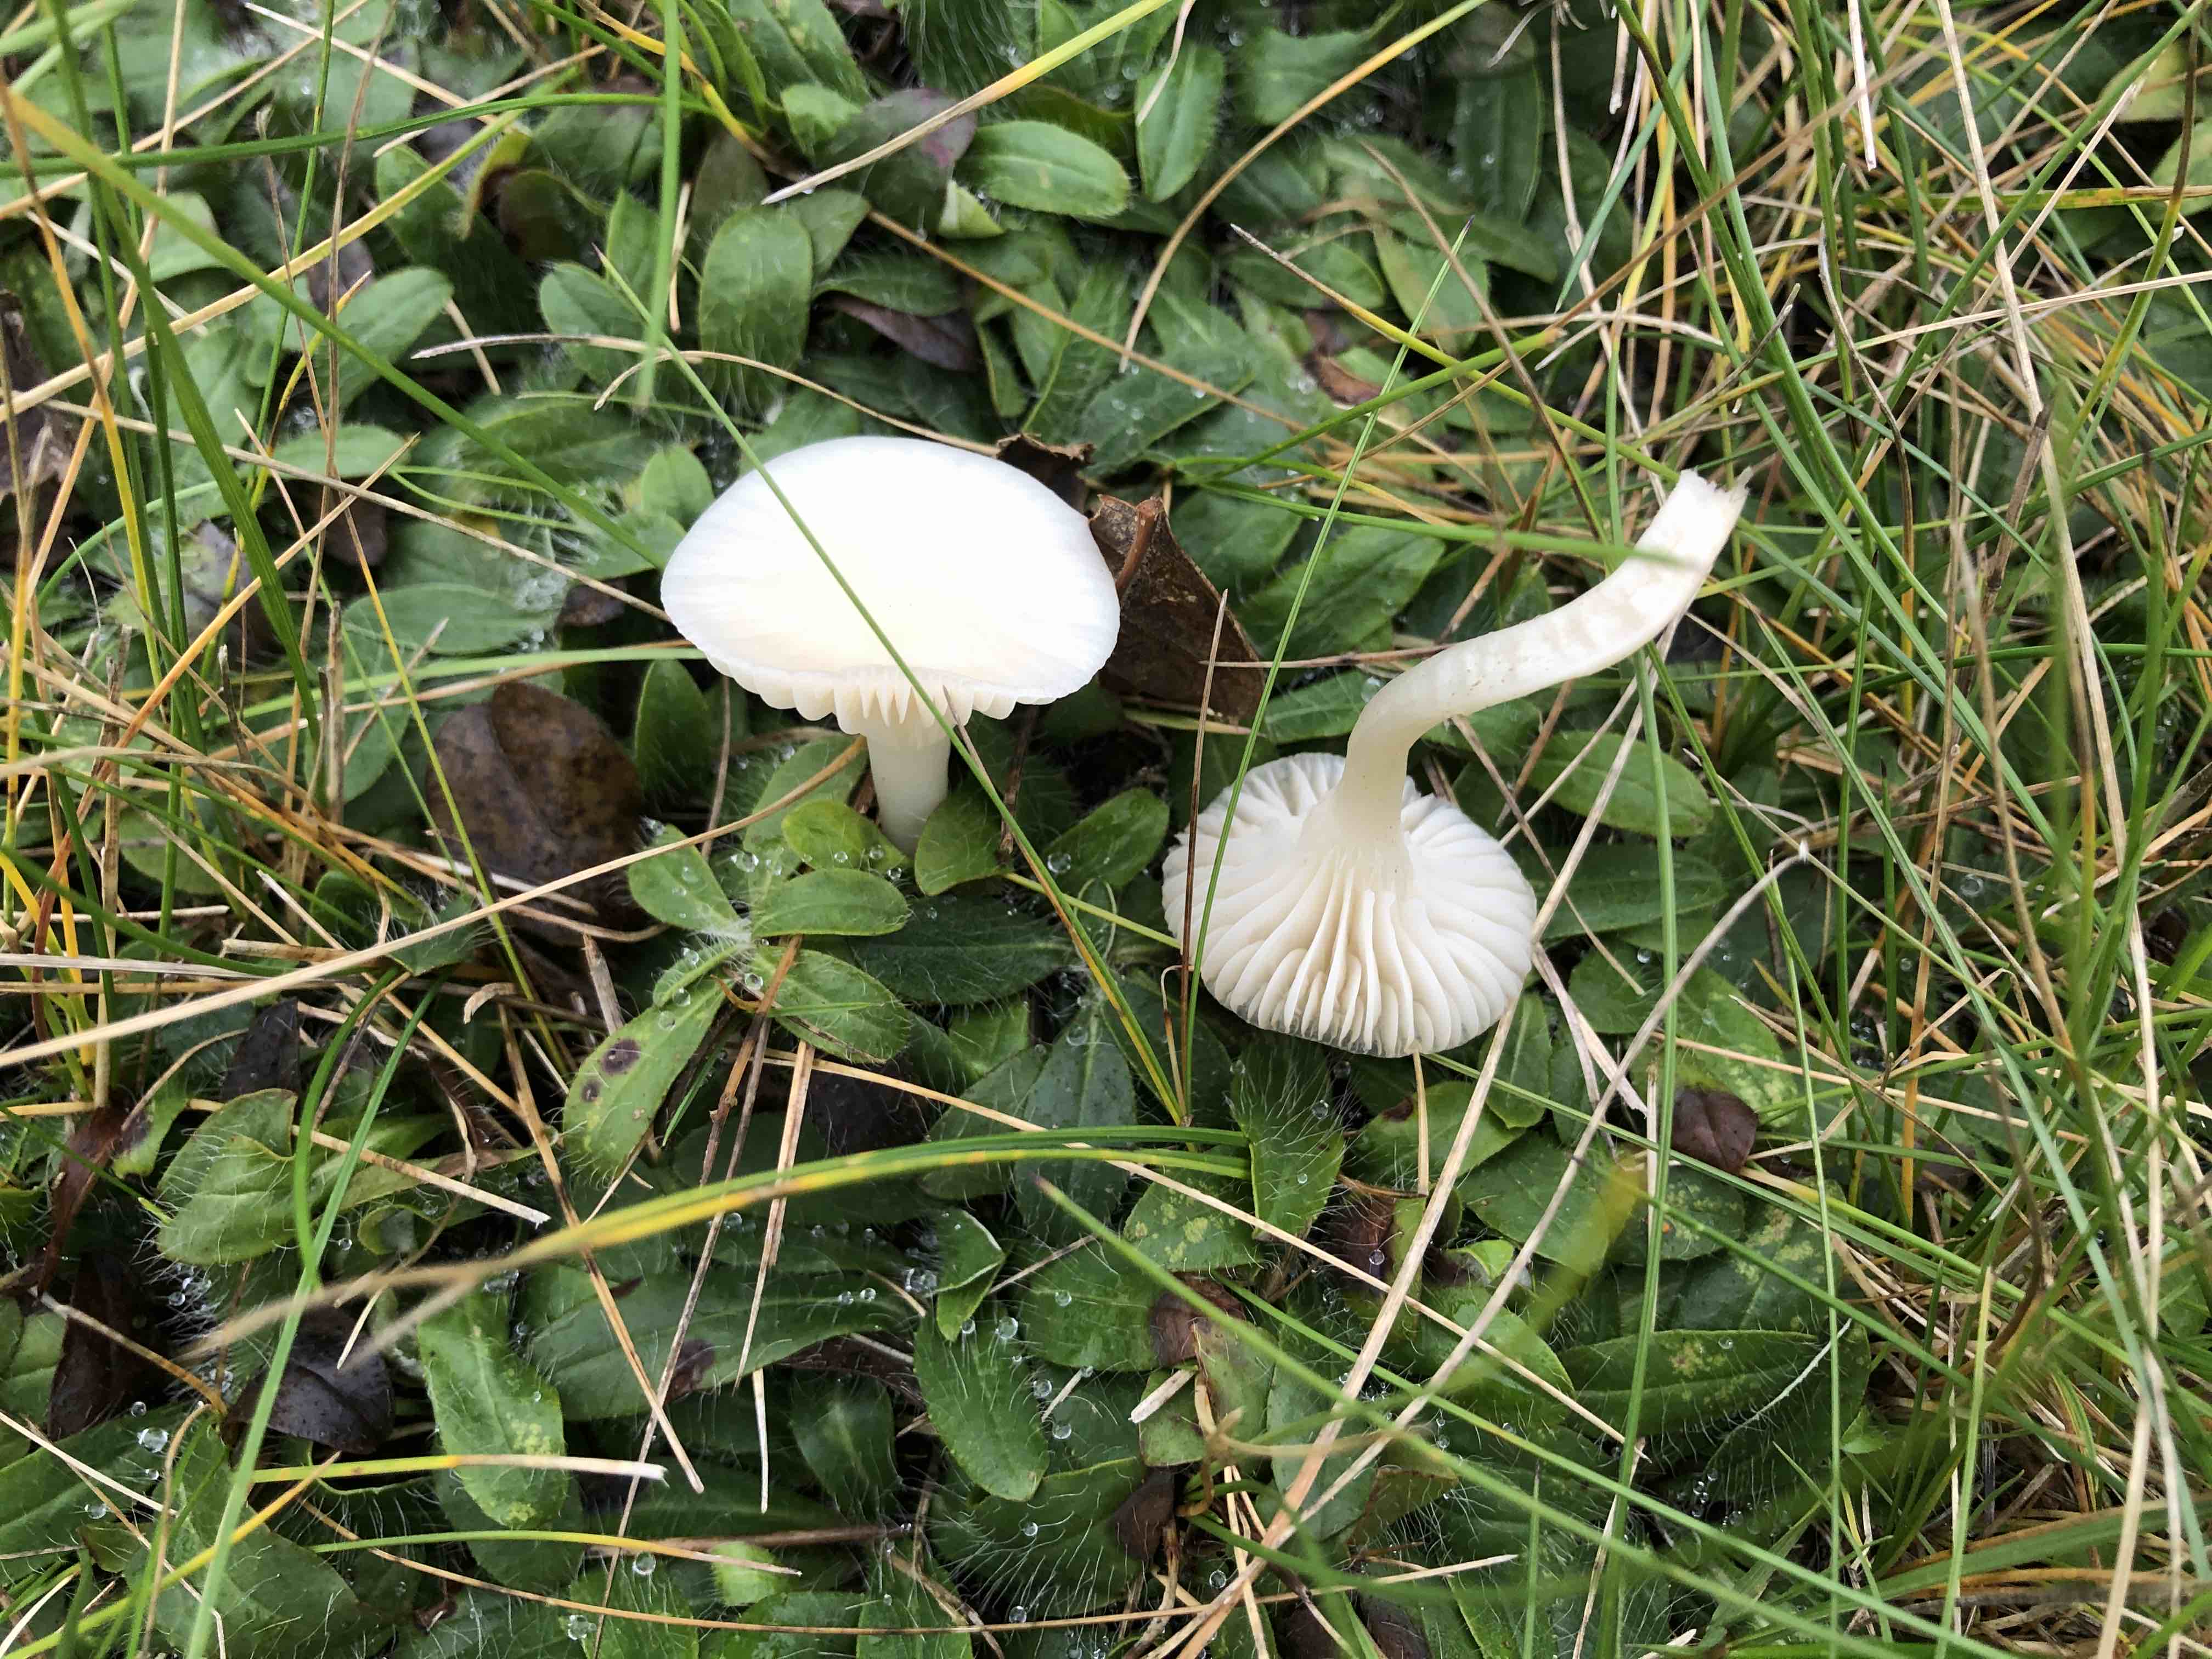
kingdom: Fungi
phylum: Basidiomycota
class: Agaricomycetes
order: Agaricales
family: Hygrophoraceae
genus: Cuphophyllus
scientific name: Cuphophyllus virgineus
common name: snehvid vokshat
